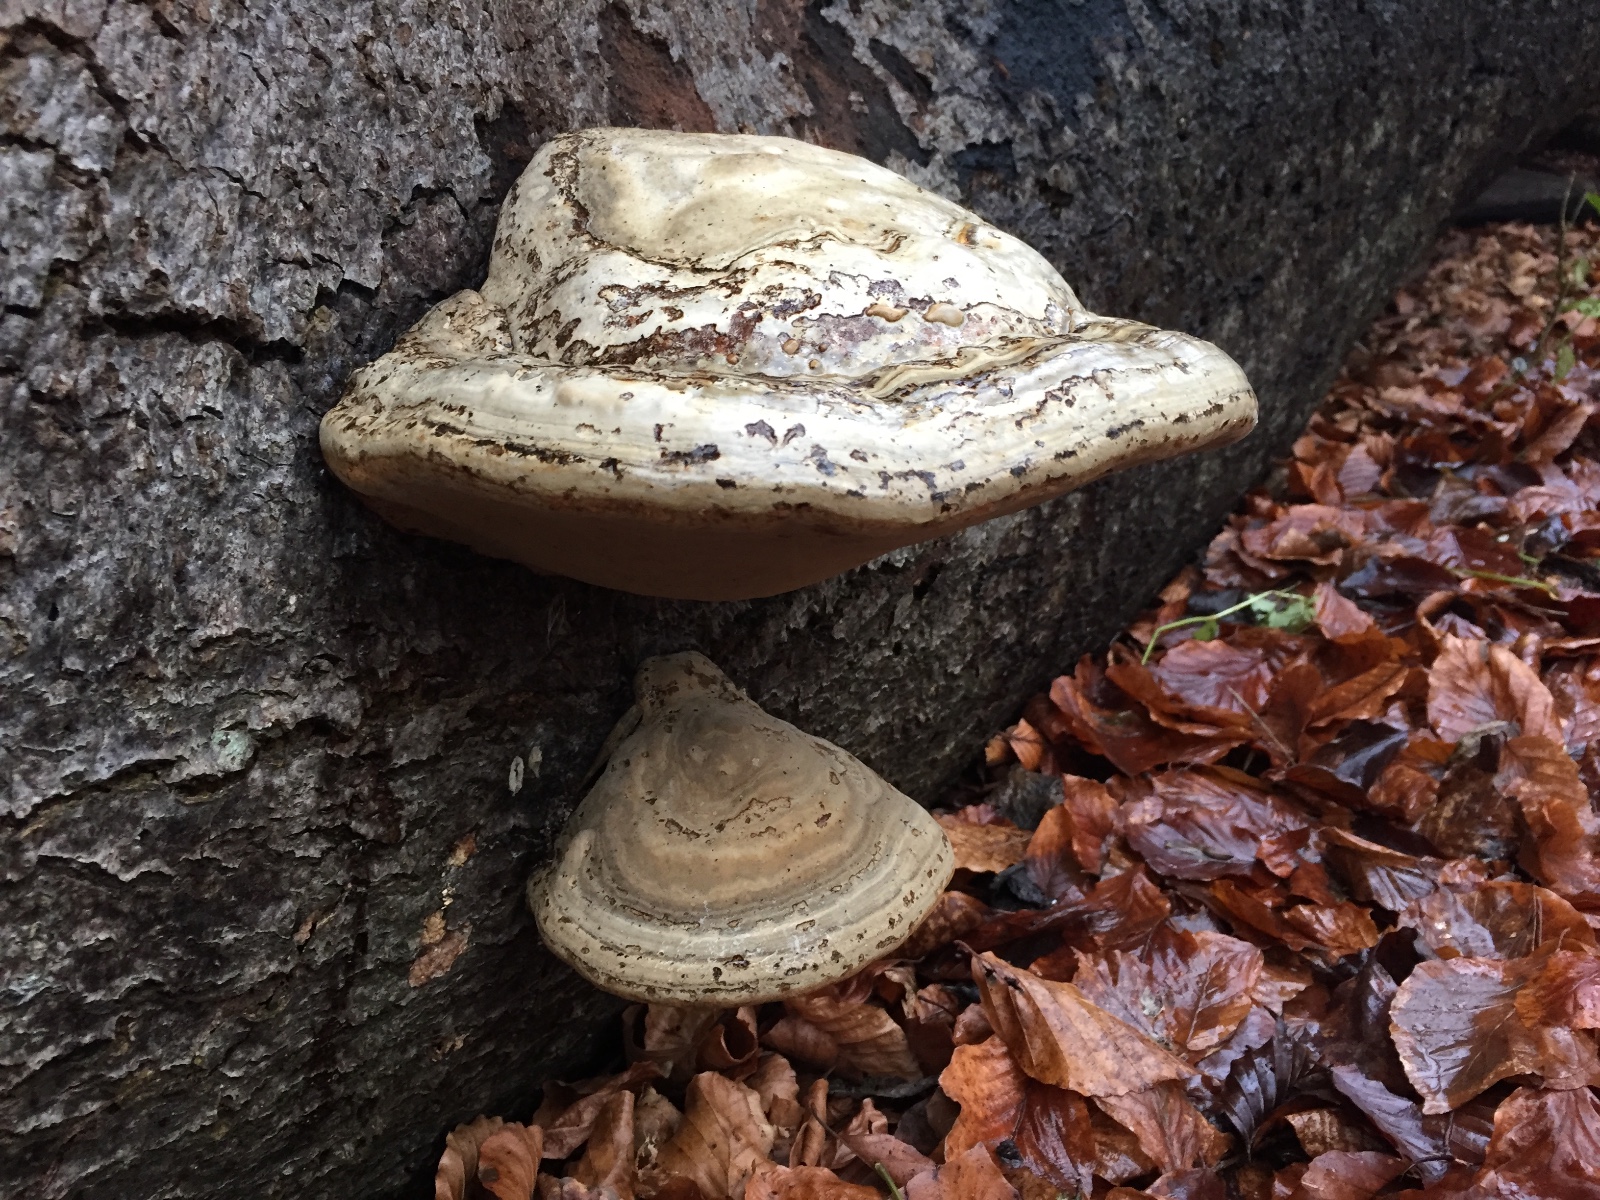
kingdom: Fungi
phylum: Basidiomycota
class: Agaricomycetes
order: Polyporales
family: Polyporaceae
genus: Fomes
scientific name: Fomes fomentarius
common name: tøndersvamp
